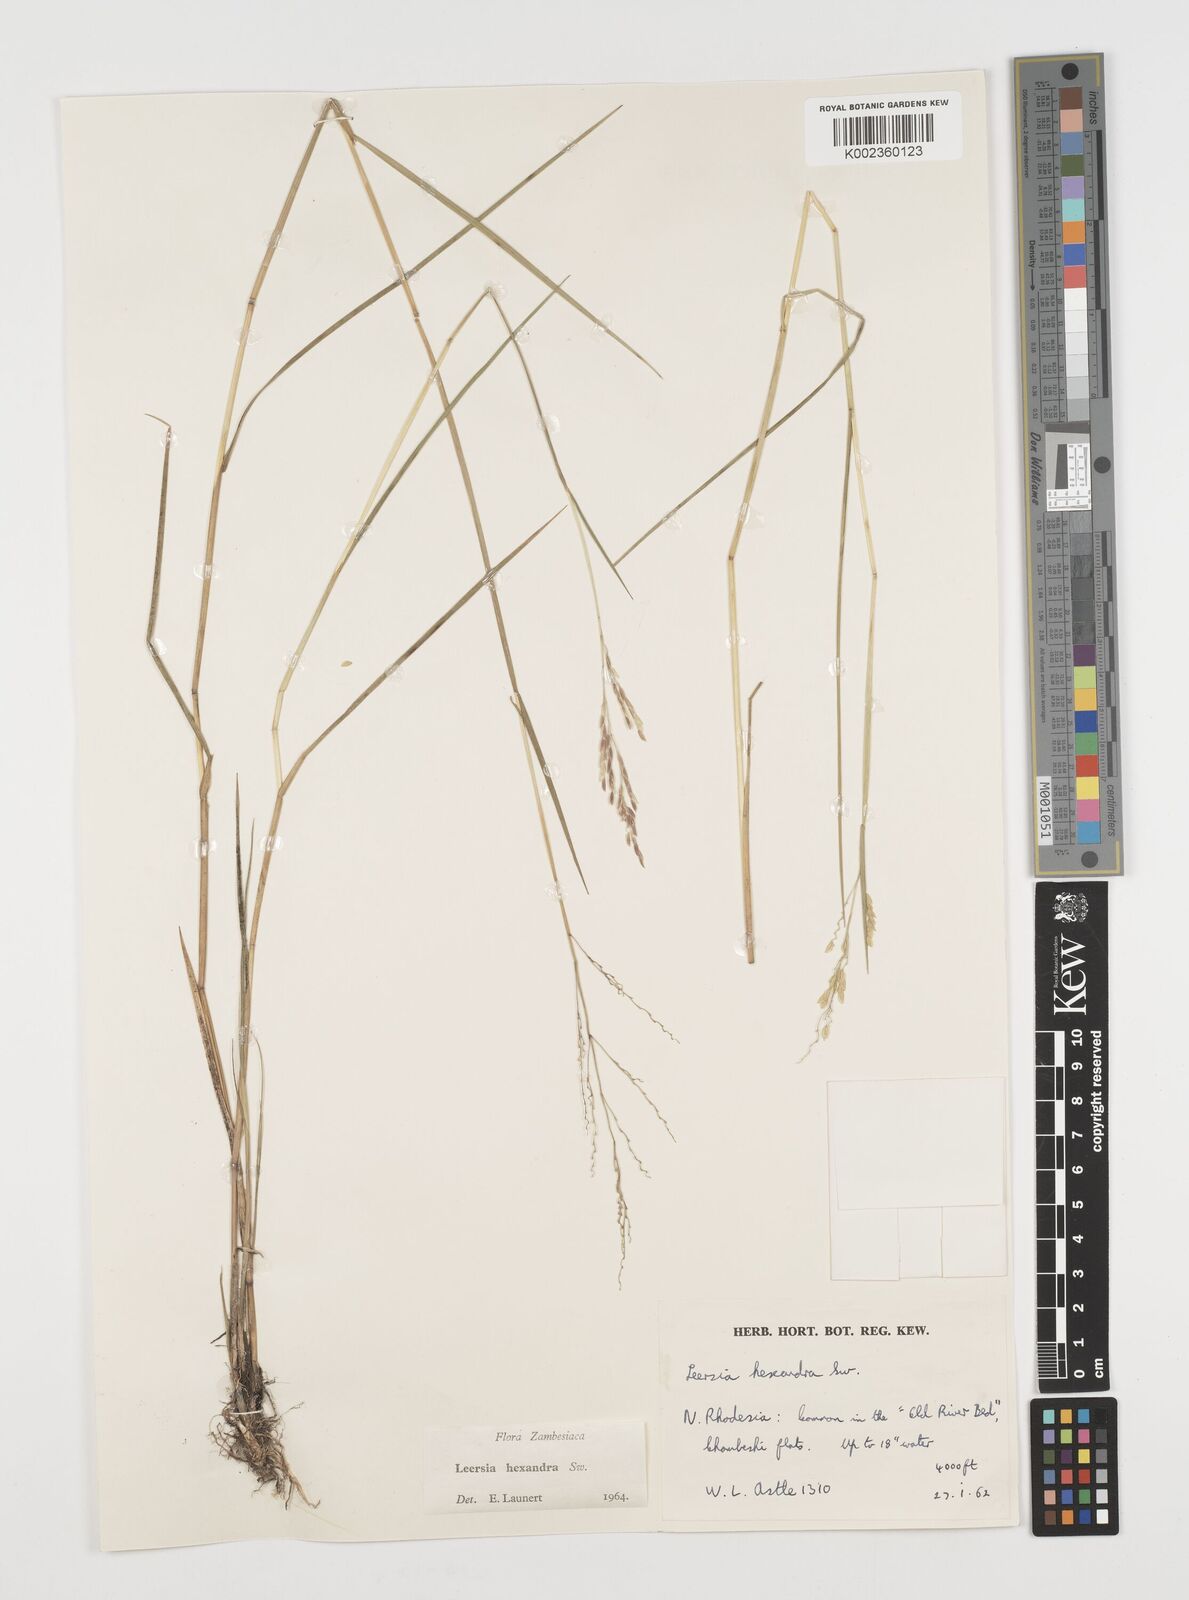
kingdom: Plantae
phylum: Tracheophyta
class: Liliopsida
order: Poales
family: Poaceae
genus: Leersia
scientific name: Leersia hexandra
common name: Southern cut grass
